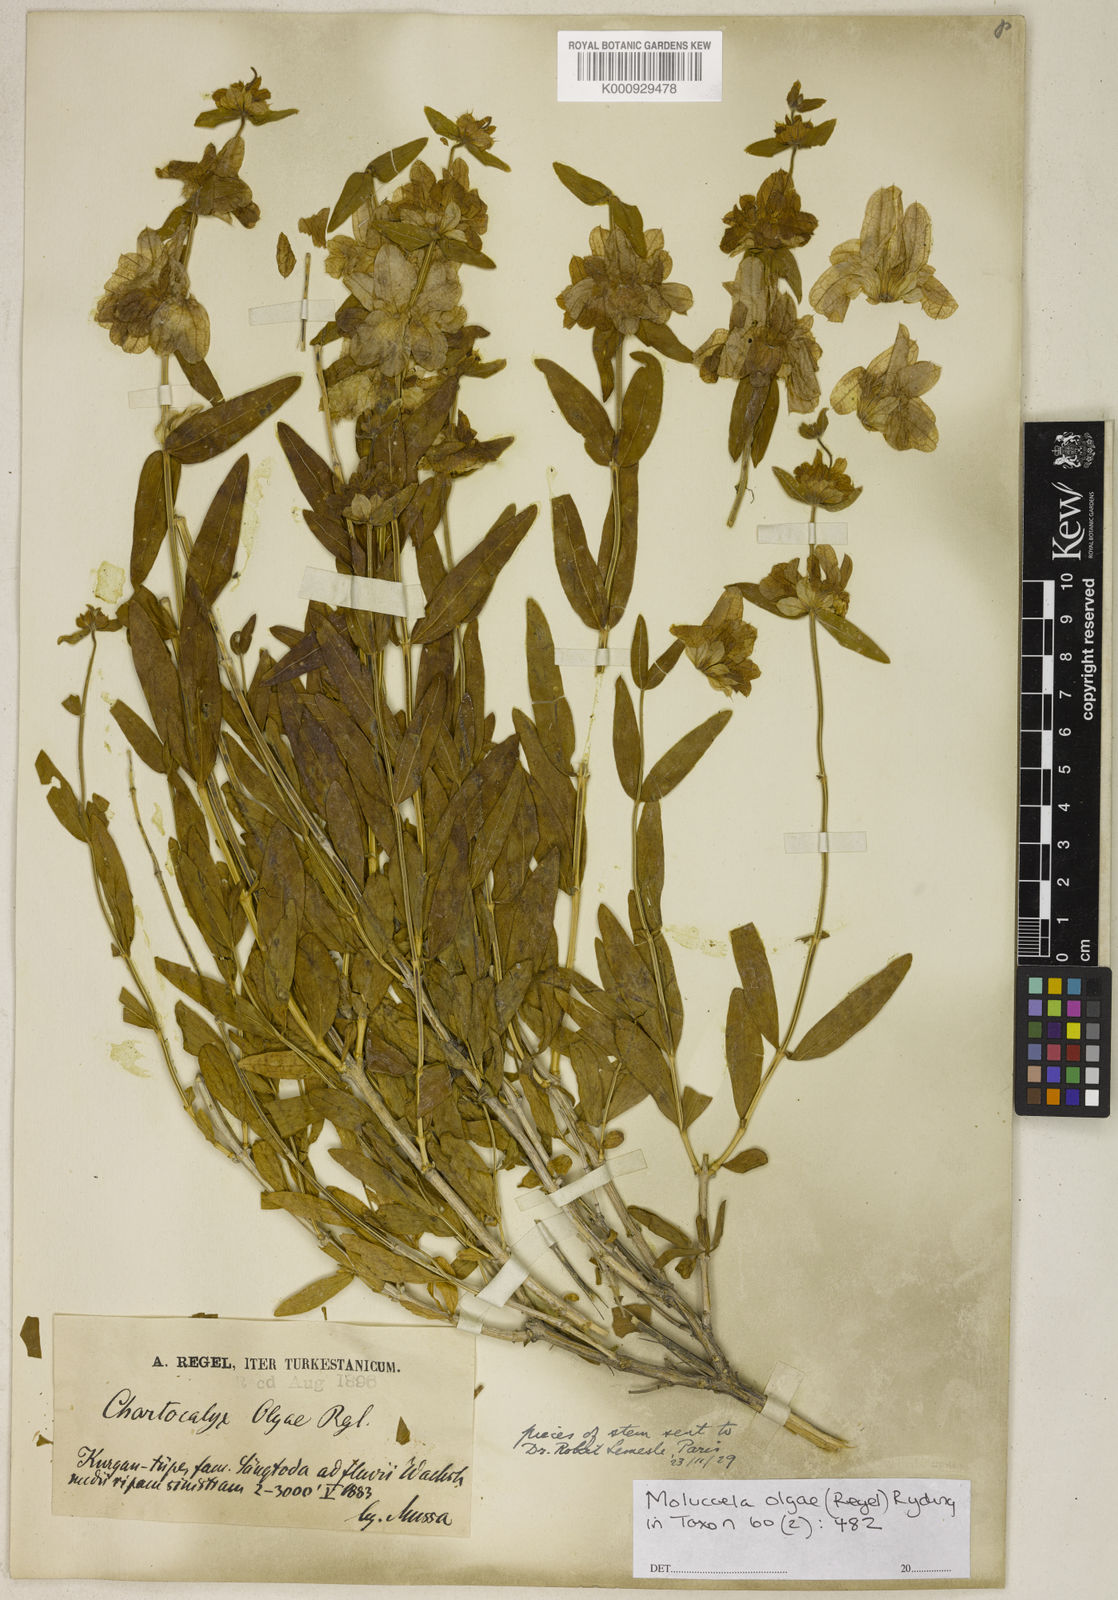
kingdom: Plantae
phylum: Tracheophyta
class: Magnoliopsida
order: Lamiales
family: Lamiaceae
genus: Moluccella
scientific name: Moluccella olgae
